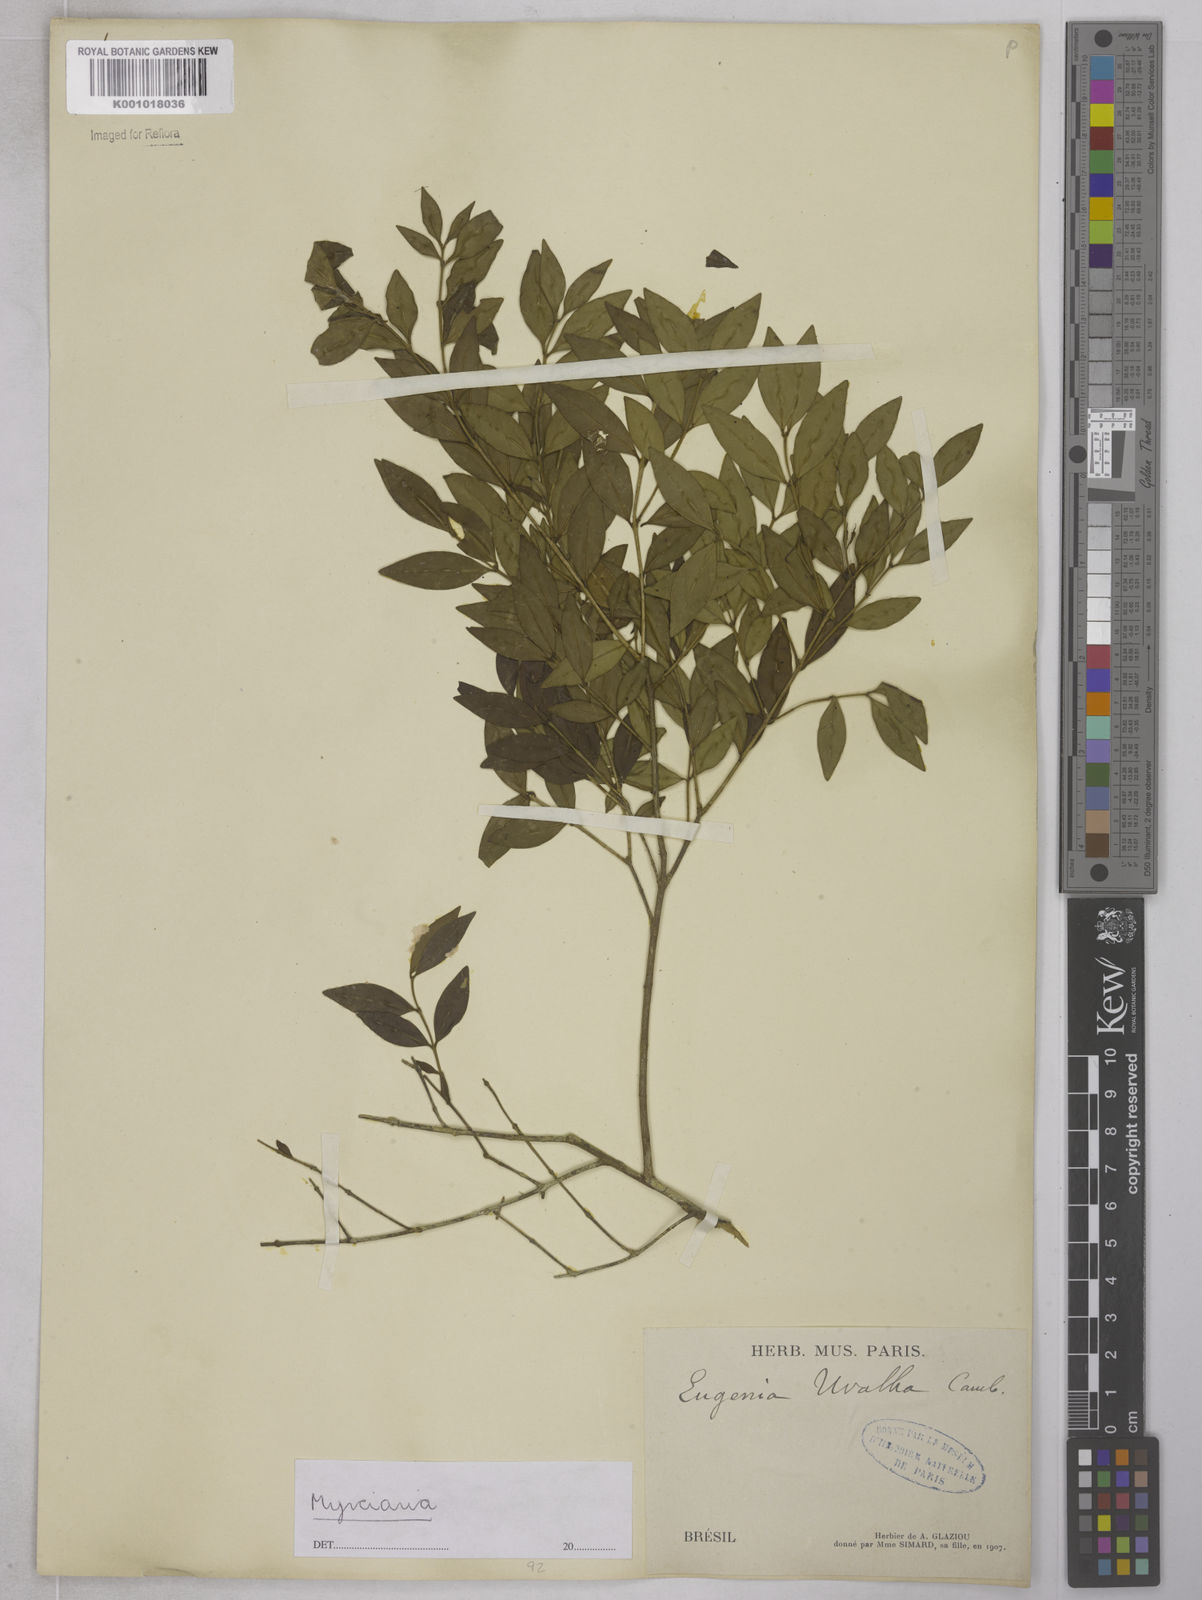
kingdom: Plantae
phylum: Tracheophyta
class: Magnoliopsida
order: Myrtales
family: Myrtaceae
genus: Eugenia
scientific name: Eugenia pyriformis
